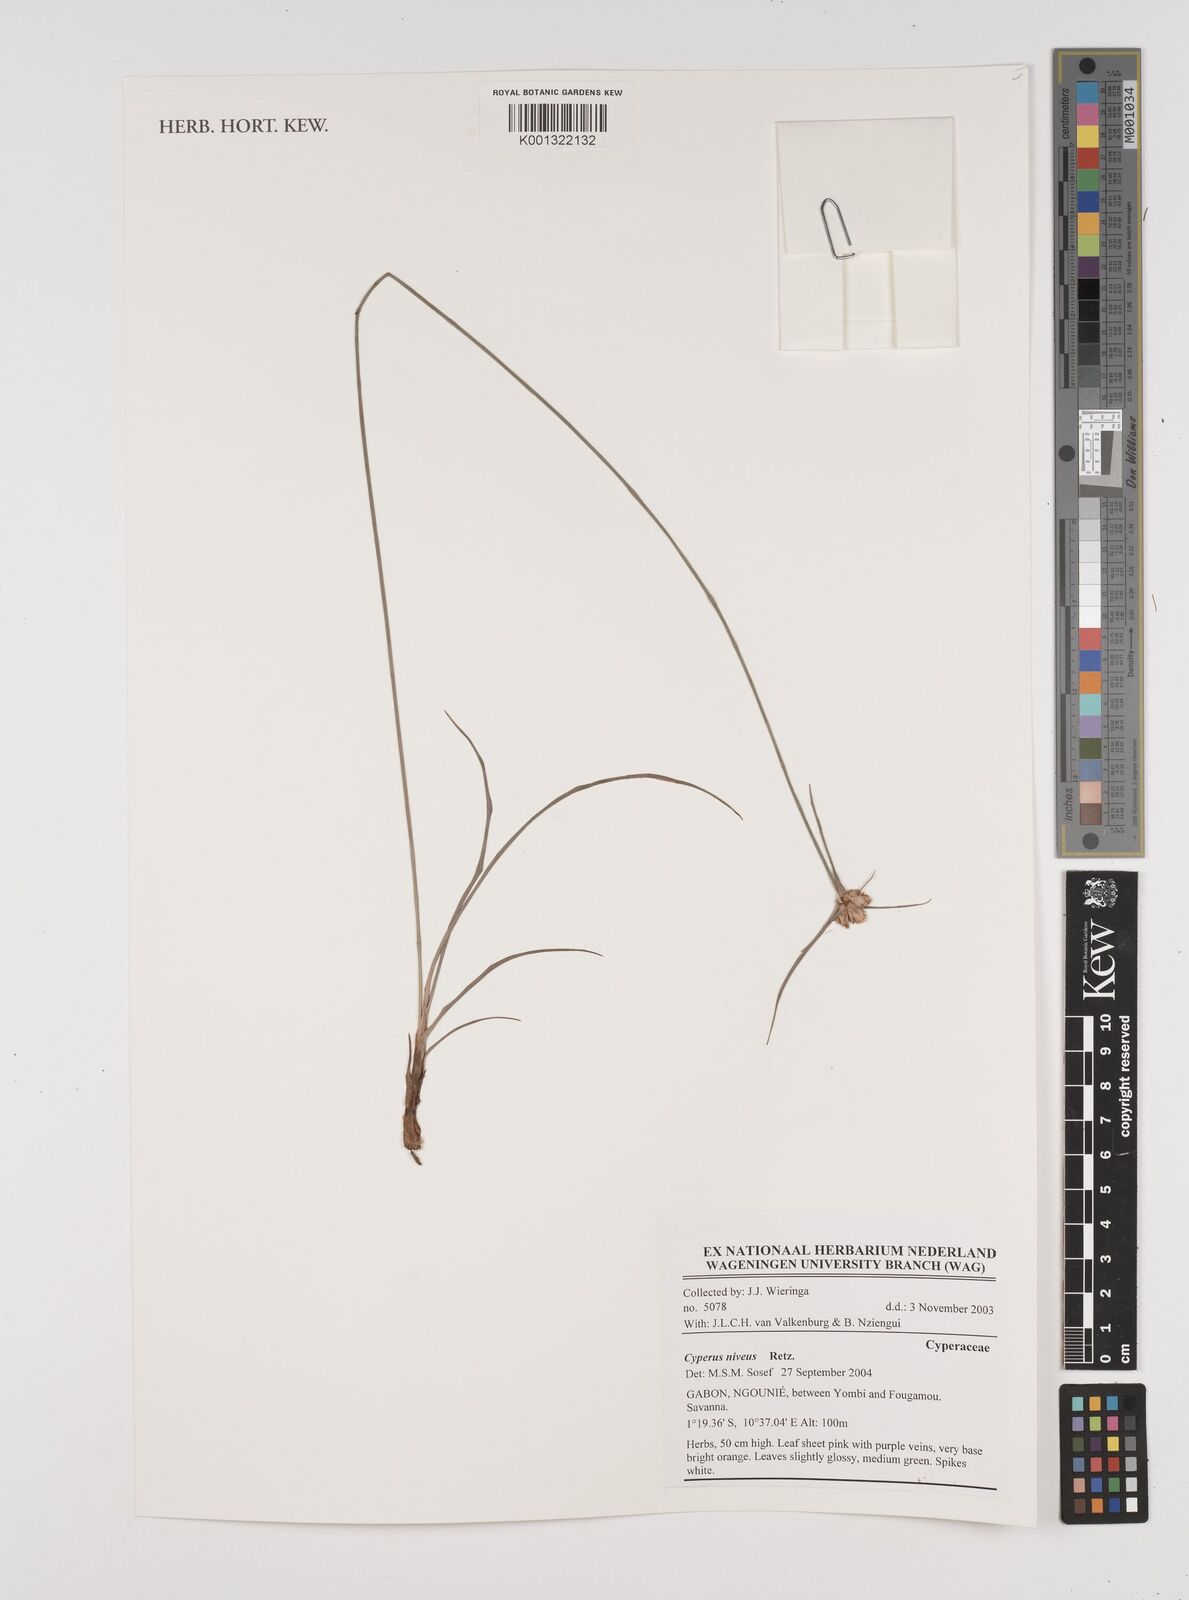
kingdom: Plantae
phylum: Tracheophyta
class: Liliopsida
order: Poales
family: Cyperaceae
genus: Cyperus
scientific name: Cyperus niveus
